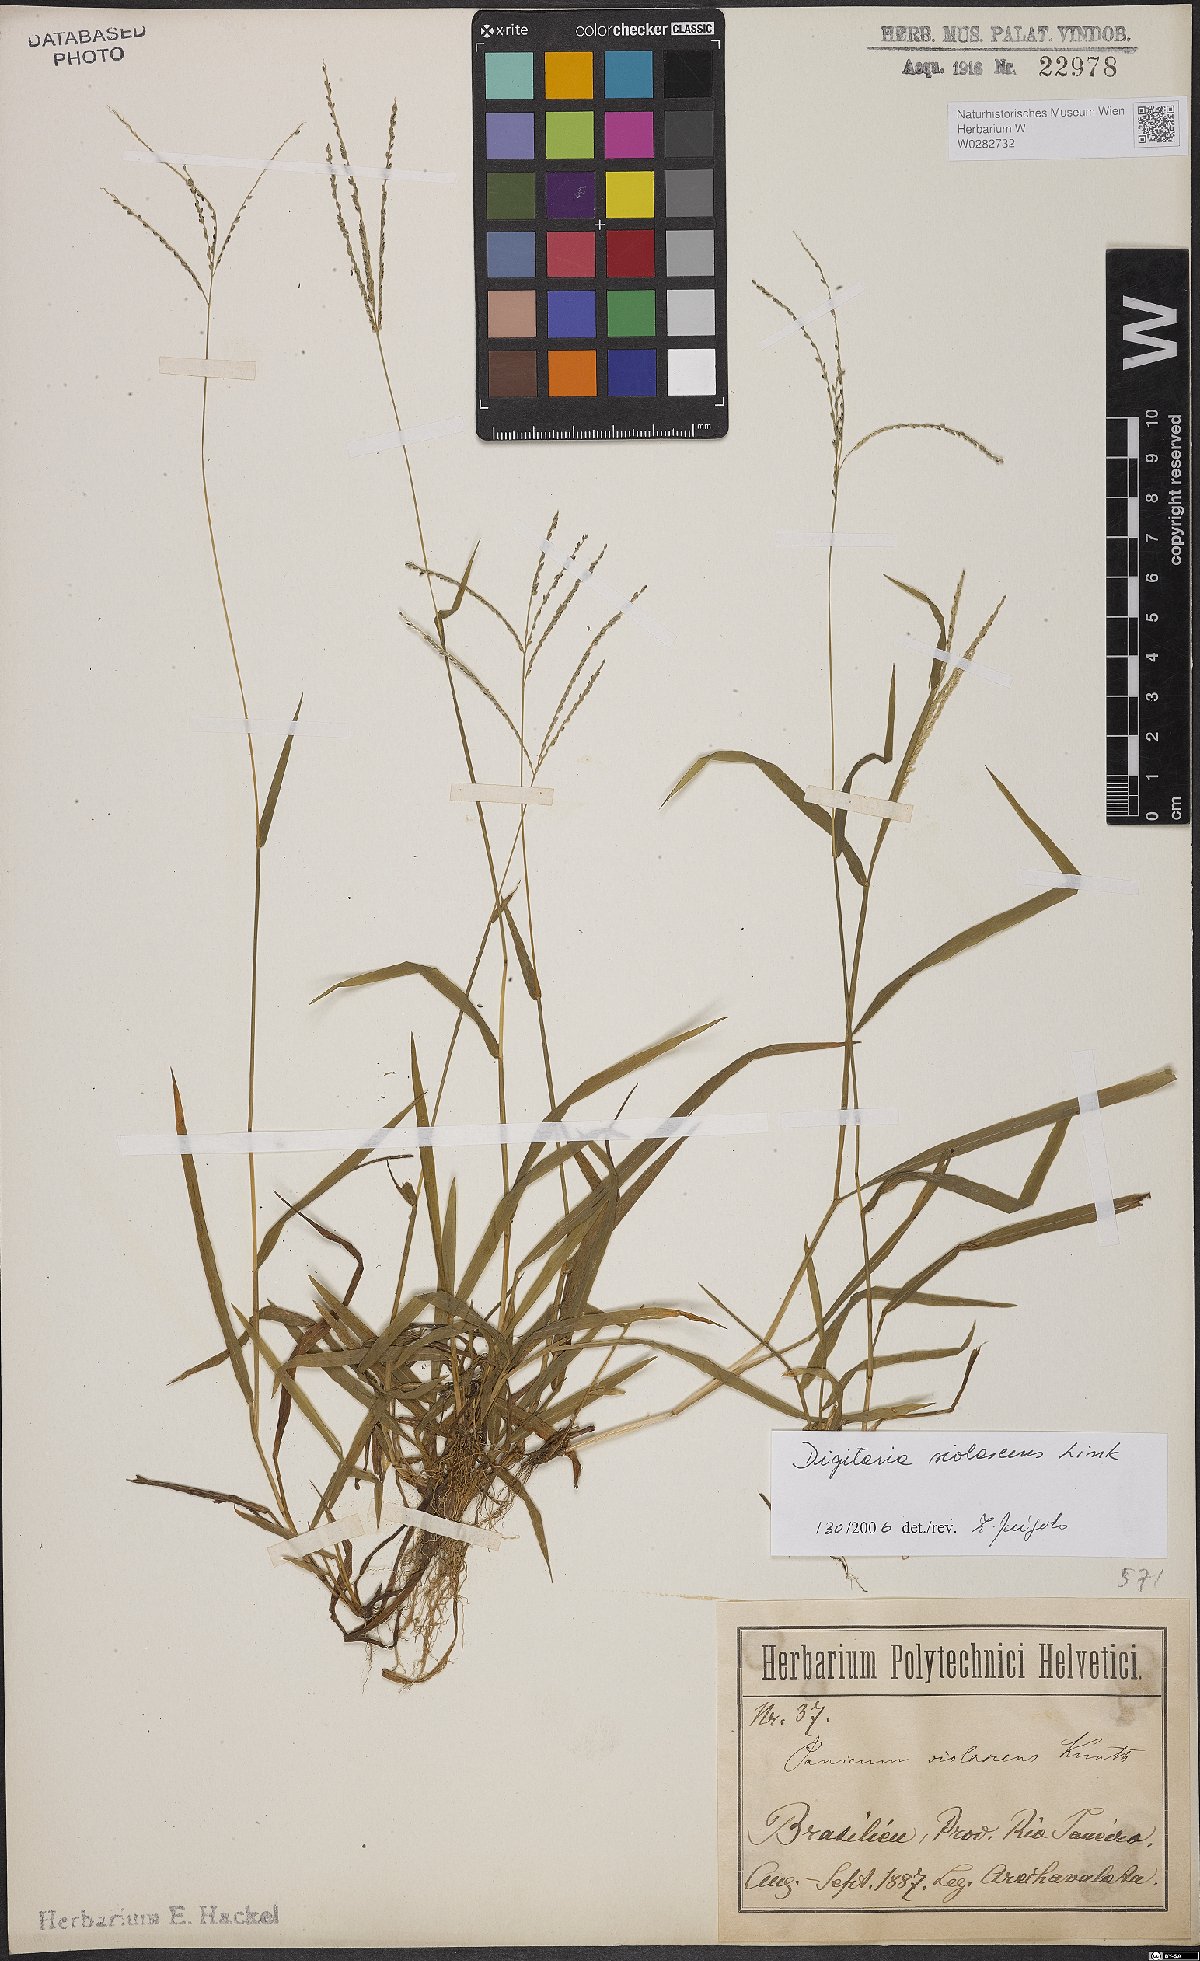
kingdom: Plantae
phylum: Tracheophyta
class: Liliopsida
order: Poales
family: Poaceae
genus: Digitaria
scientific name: Digitaria violascens
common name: Violet crabgrass
